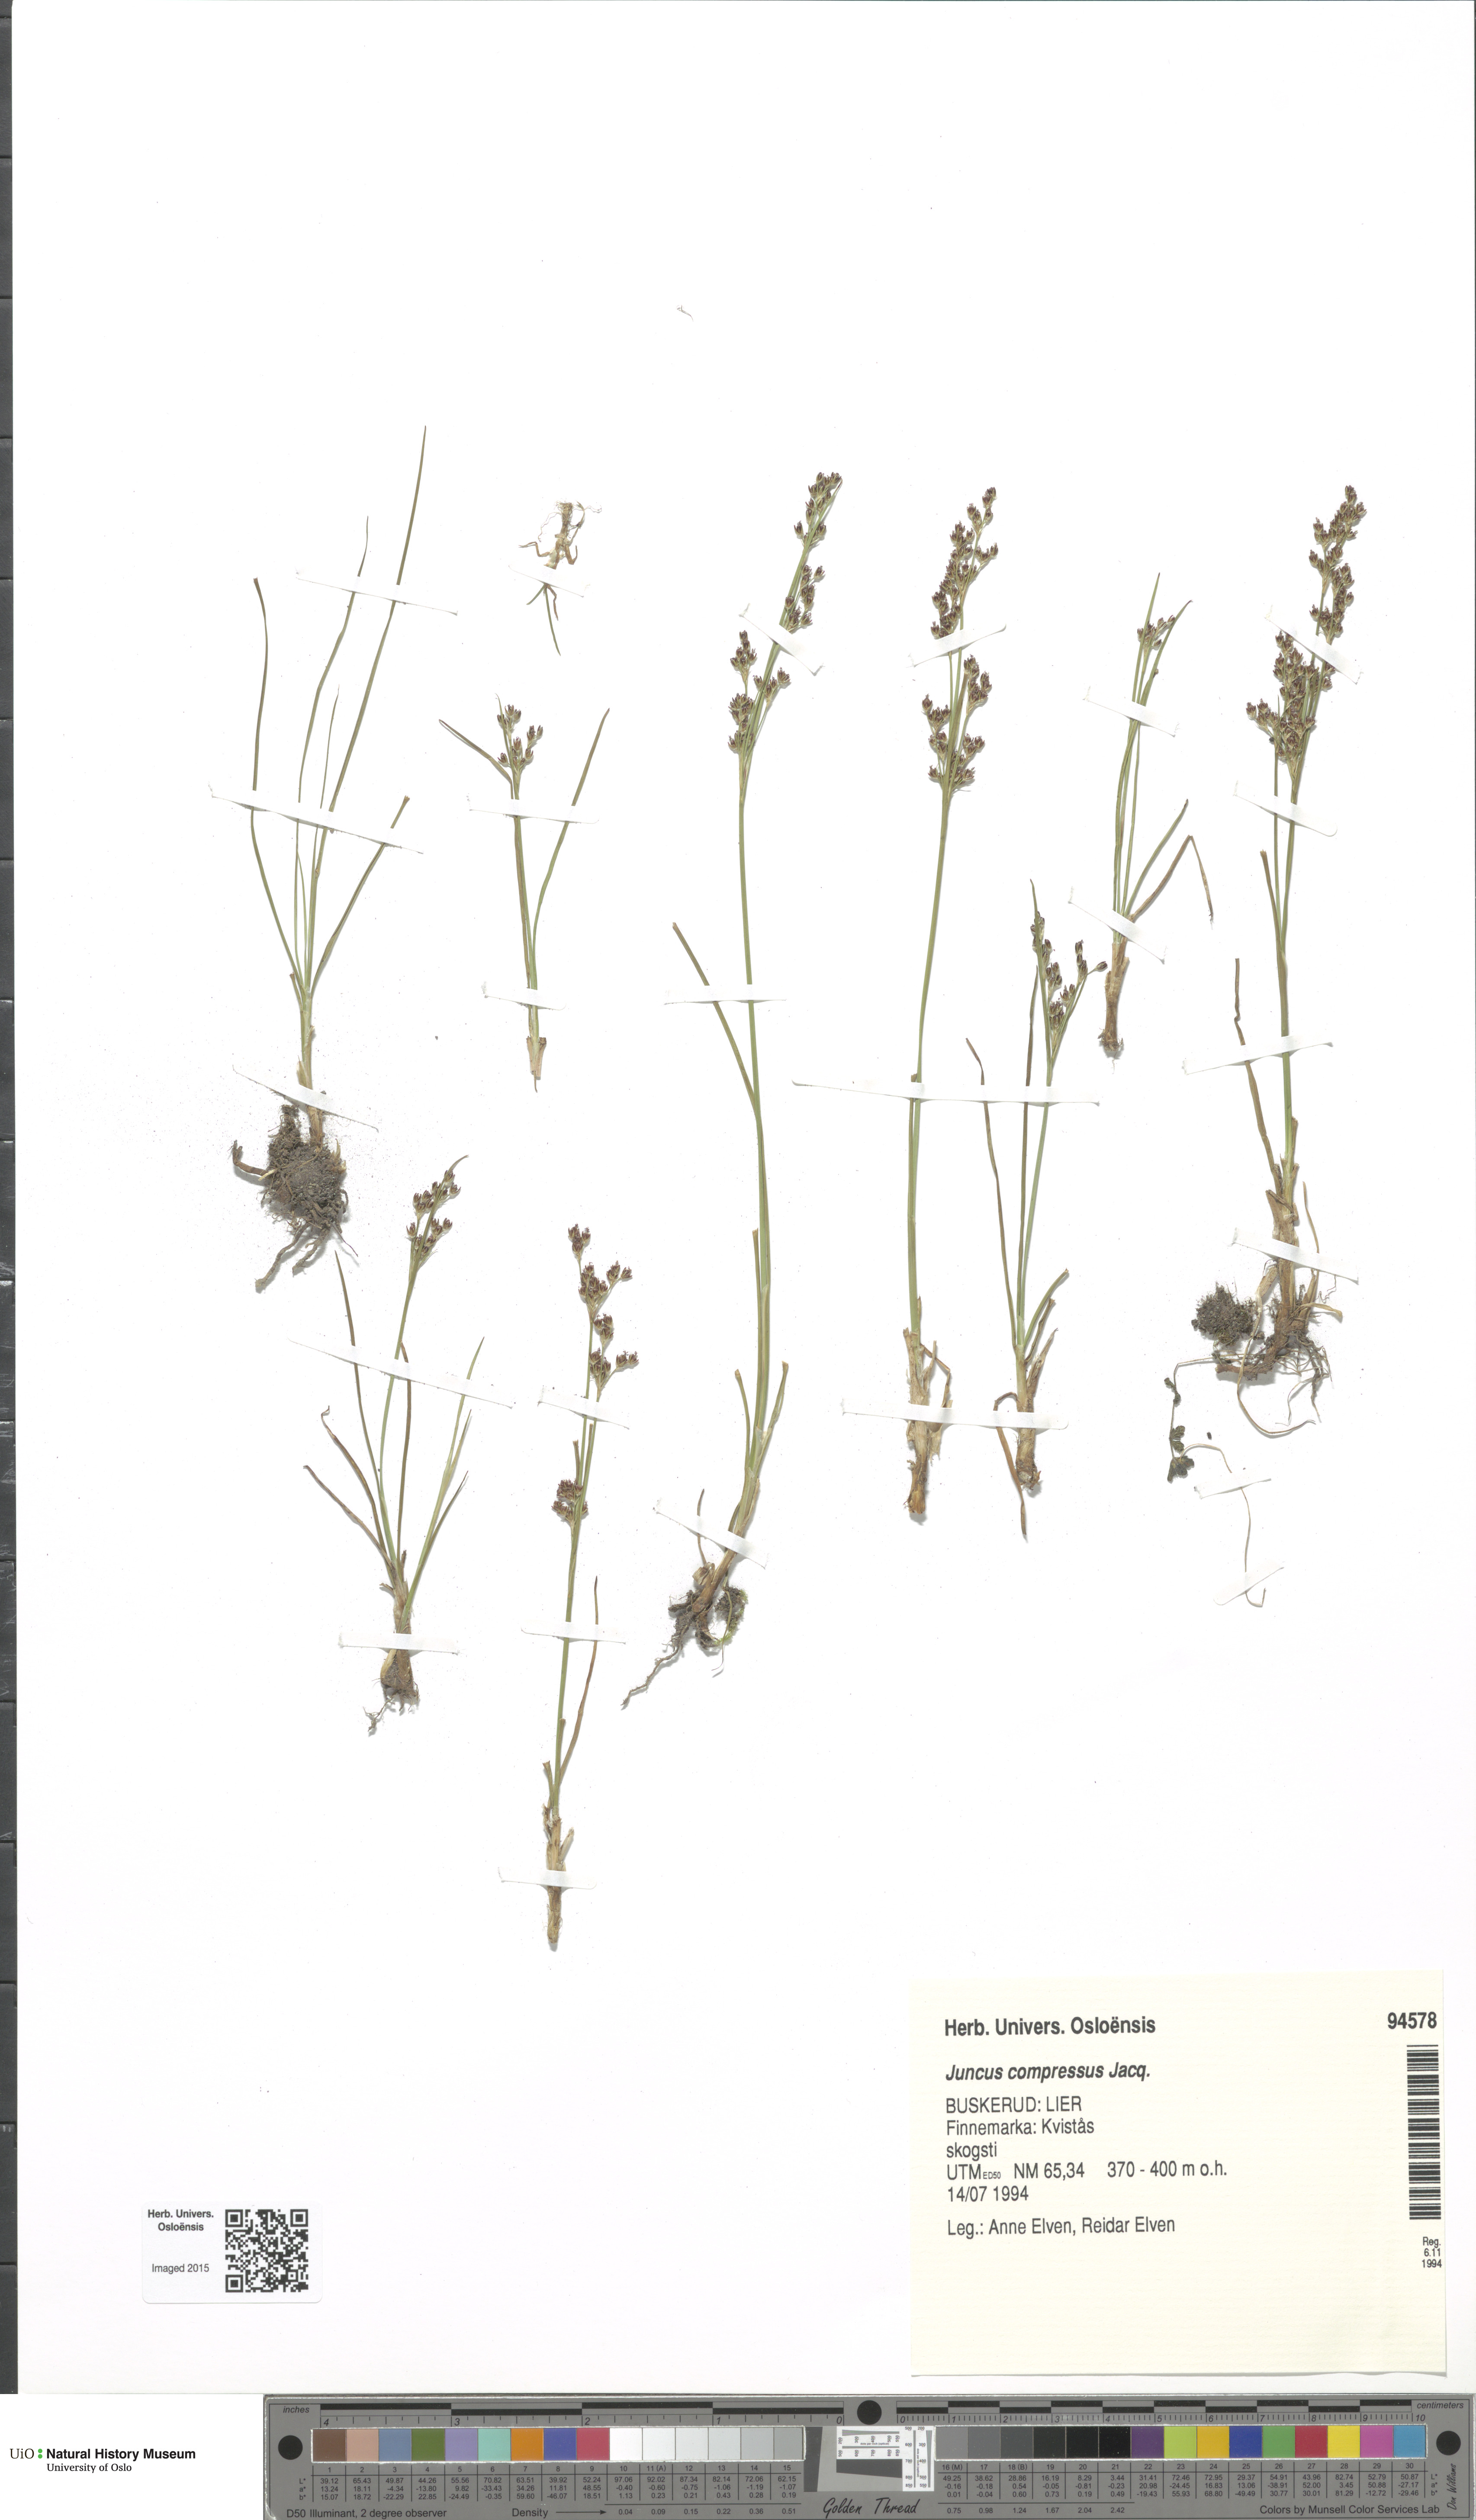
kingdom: Plantae
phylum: Tracheophyta
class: Liliopsida
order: Poales
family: Juncaceae
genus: Juncus
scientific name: Juncus compressus
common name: Round-fruited rush
